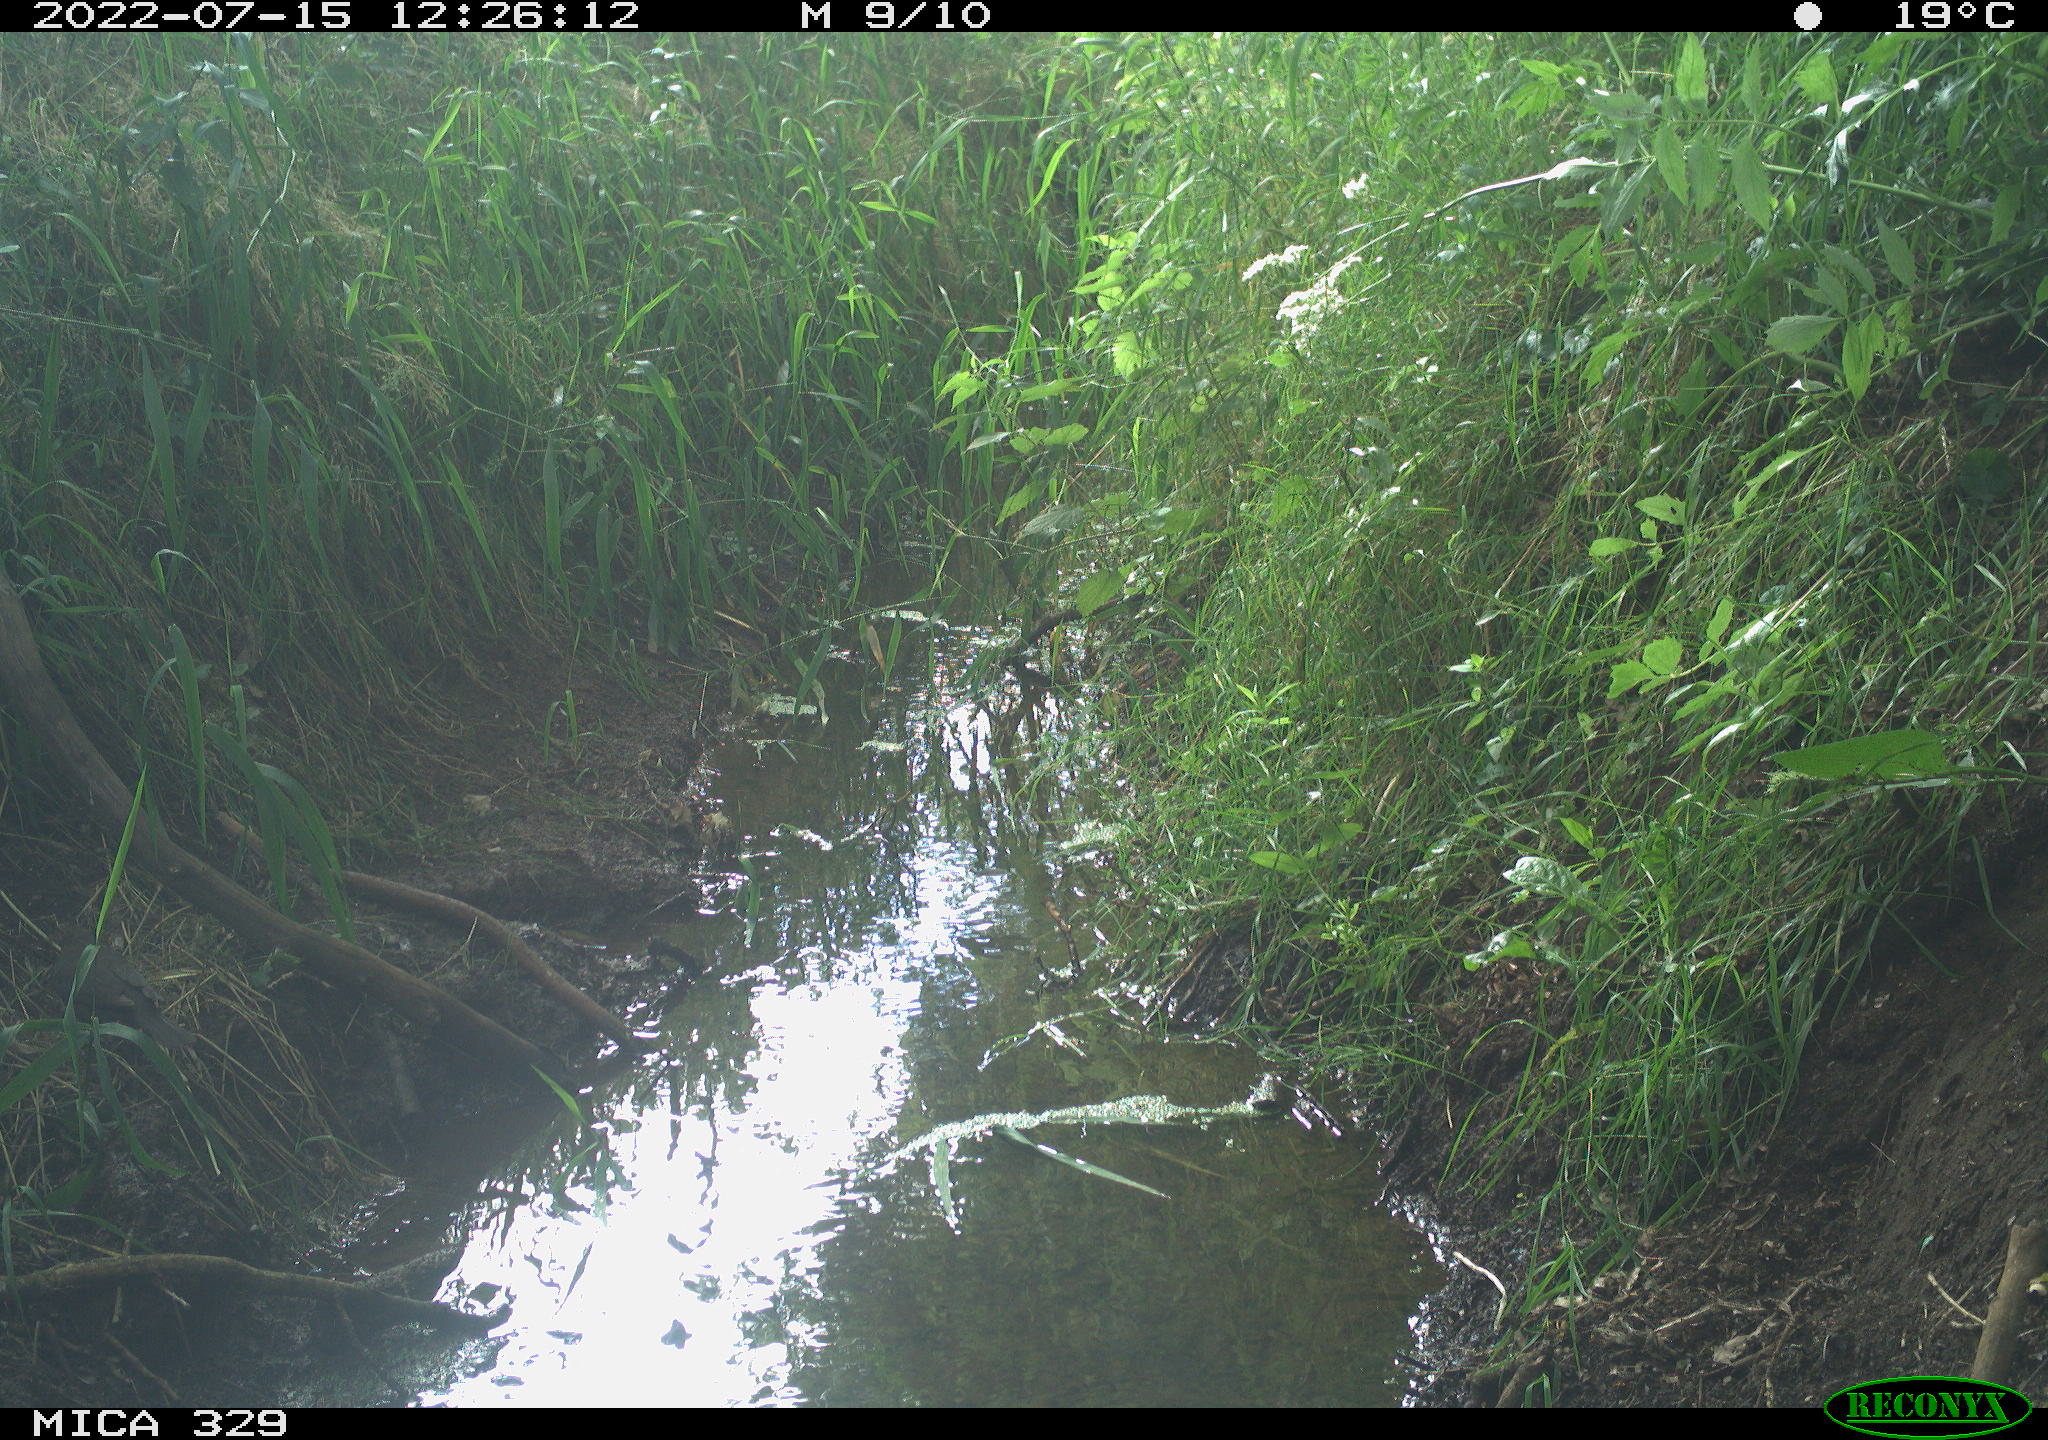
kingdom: Animalia
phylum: Chordata
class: Aves
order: Passeriformes
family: Turdidae
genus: Turdus
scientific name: Turdus merula
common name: Common blackbird
